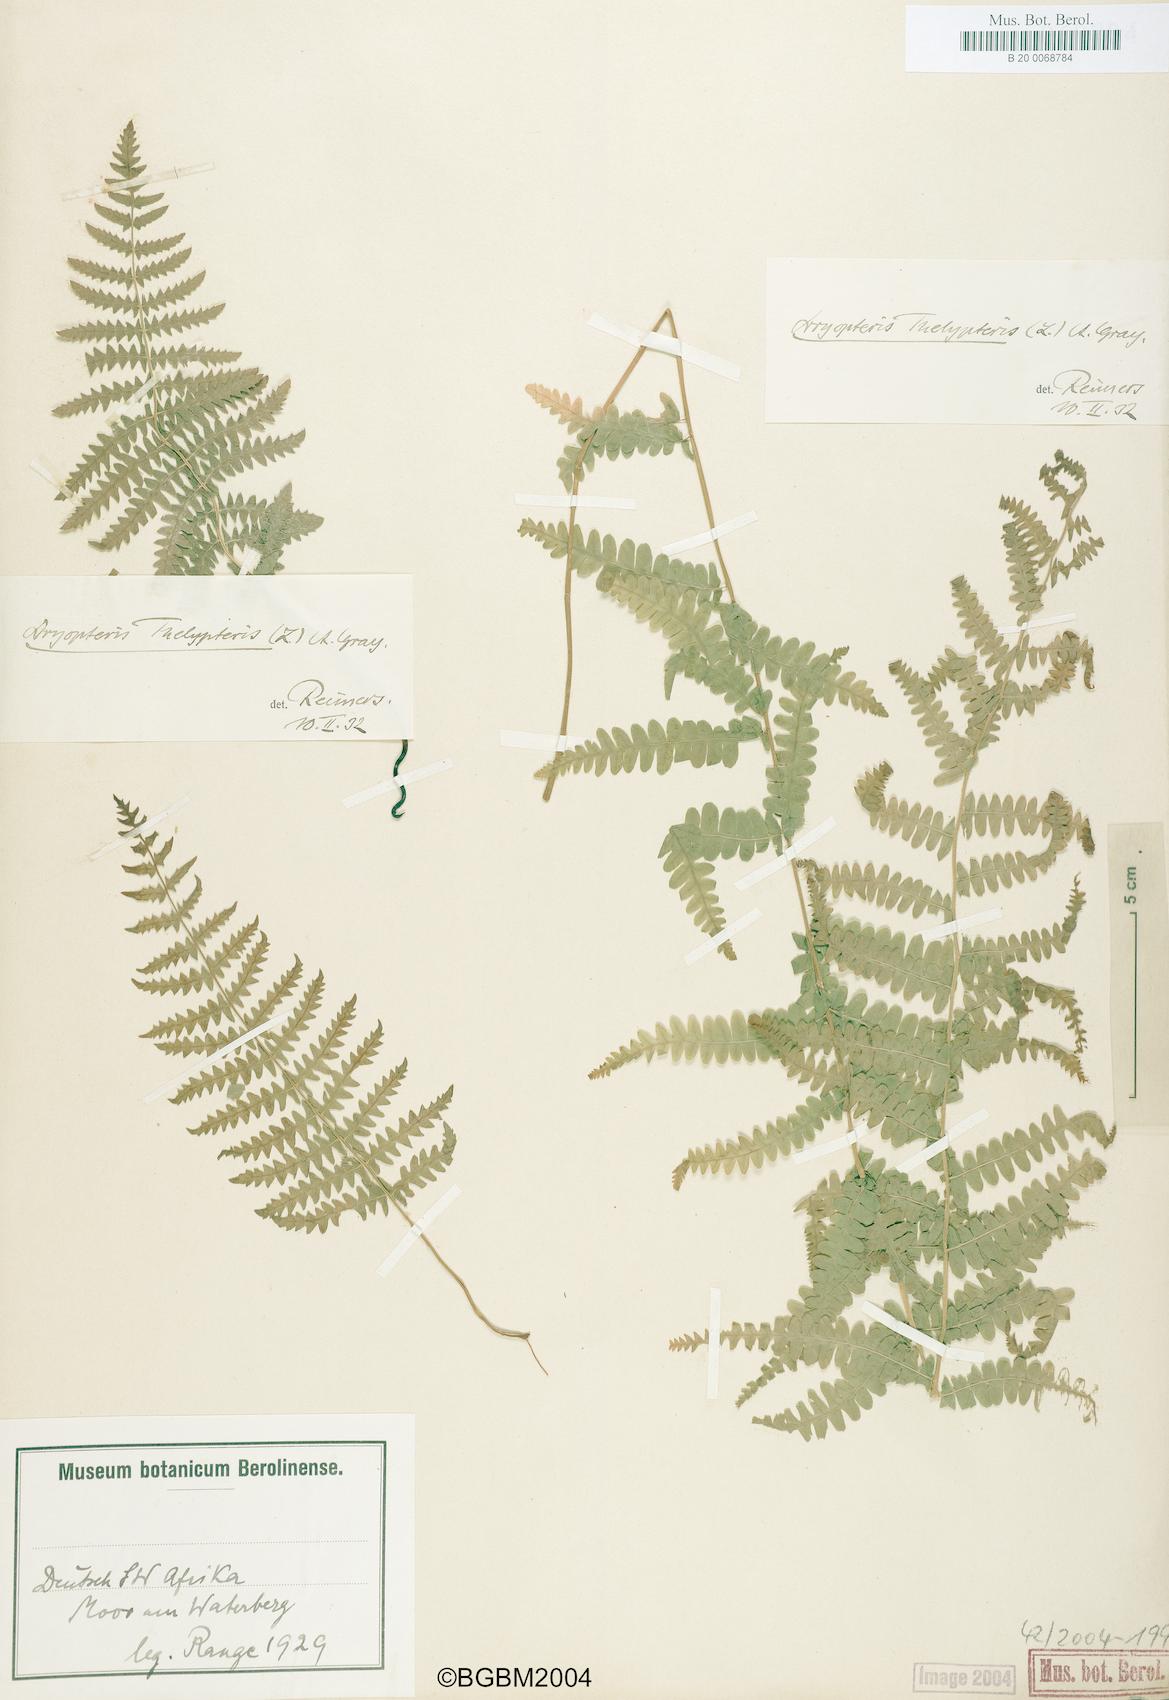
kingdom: Plantae
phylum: Tracheophyta
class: Polypodiopsida
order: Polypodiales
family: Thelypteridaceae
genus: Thelypteris
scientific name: Thelypteris palustris
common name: Marsh fern
